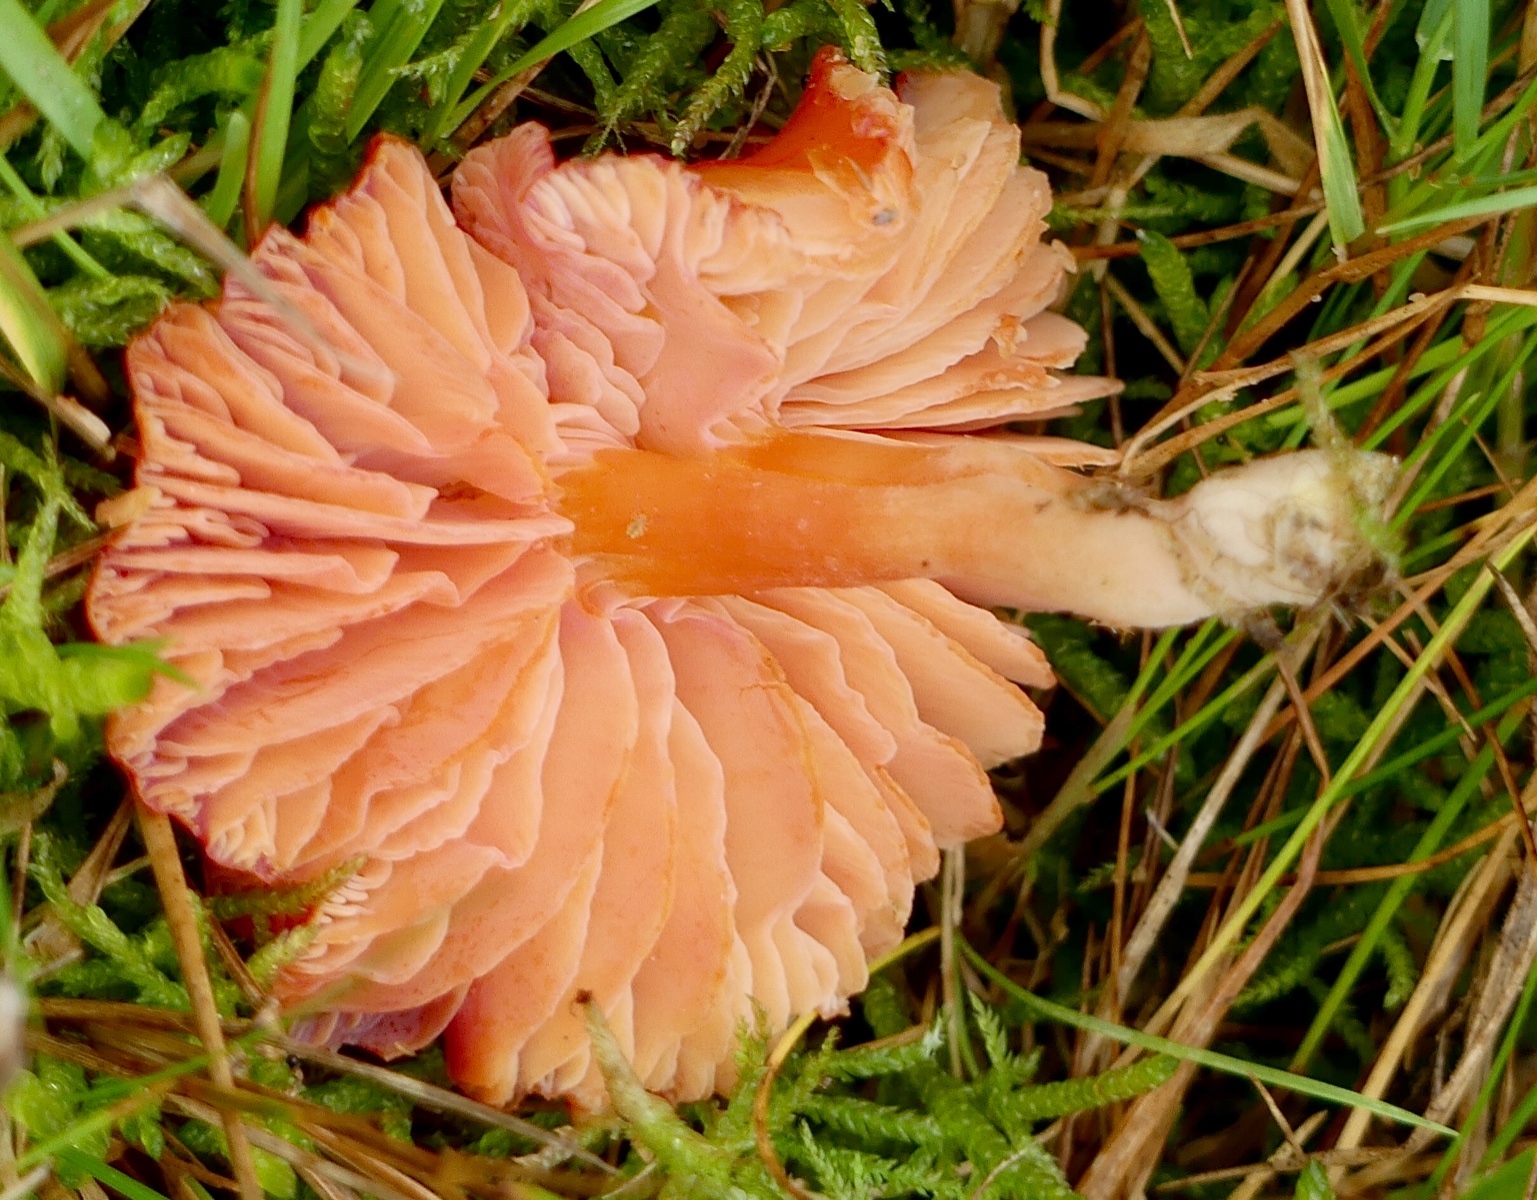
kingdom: Fungi
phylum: Basidiomycota
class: Agaricomycetes
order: Agaricales
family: Hygrophoraceae
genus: Hygrocybe
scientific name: Hygrocybe coccinea
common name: cinnober-vokshat
